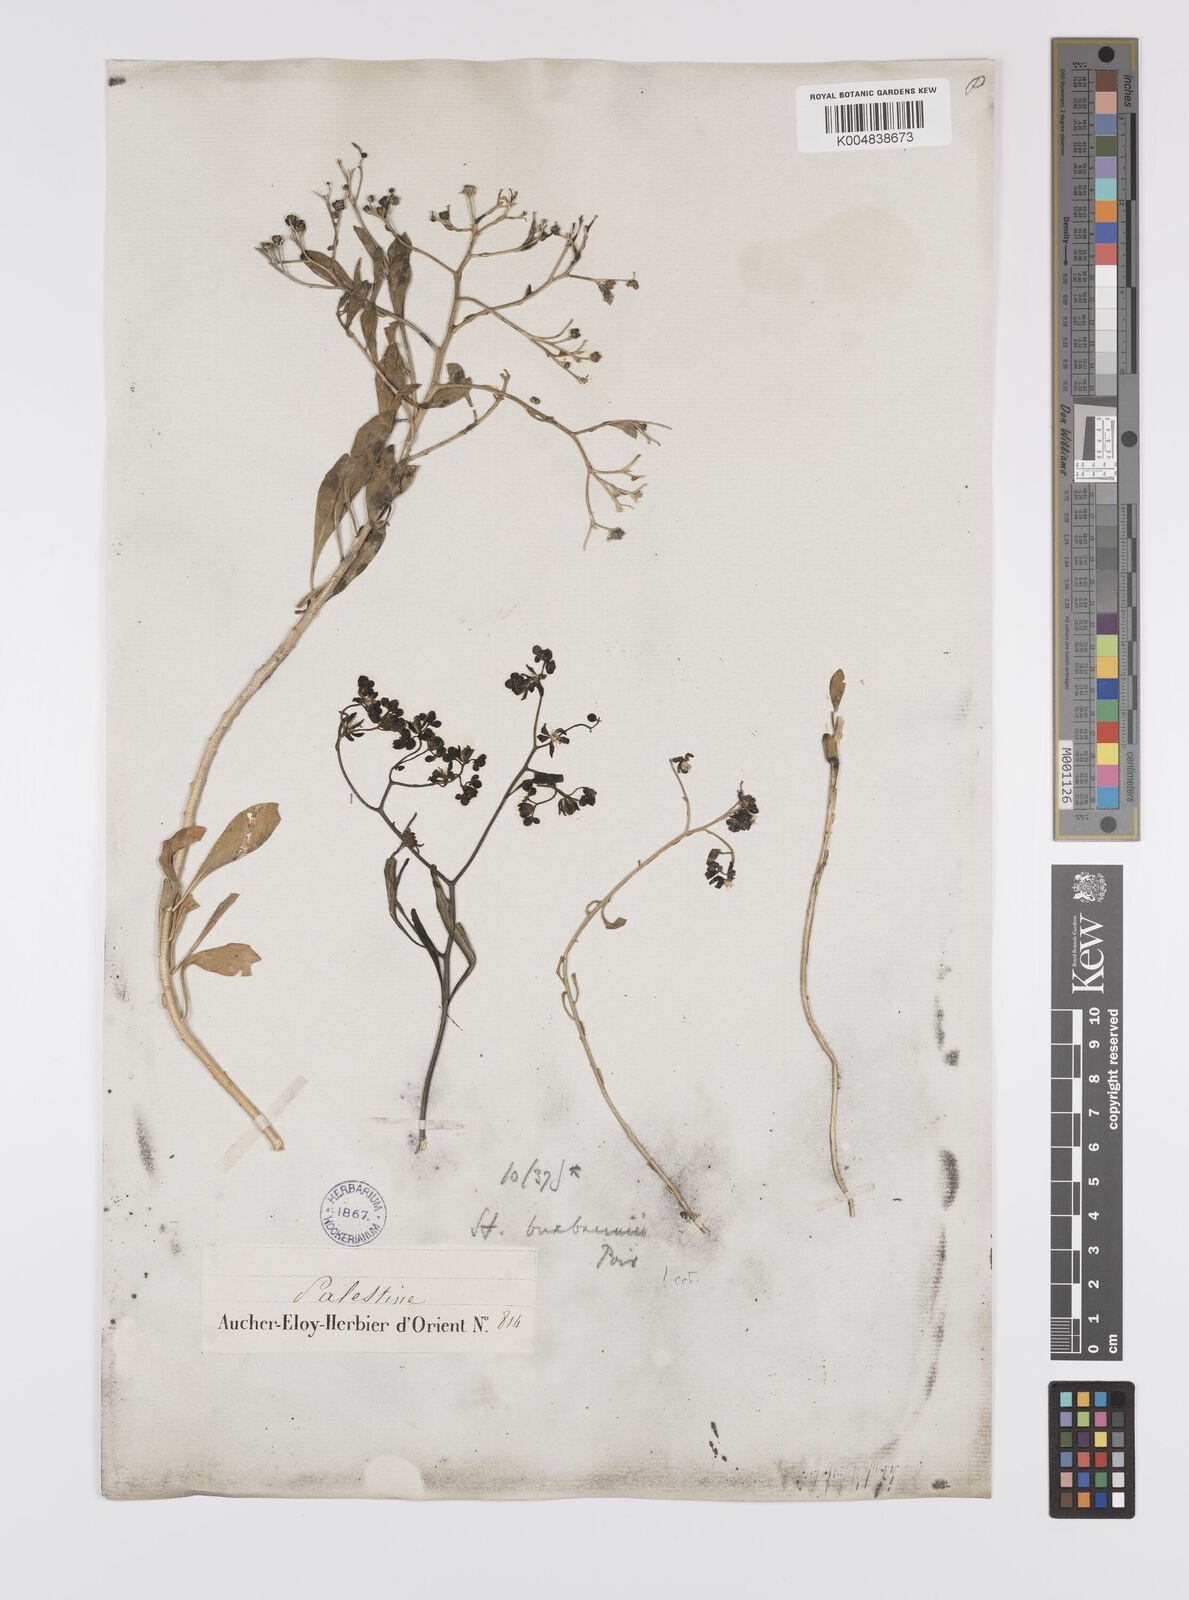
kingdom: Plantae
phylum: Tracheophyta
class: Magnoliopsida
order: Sapindales
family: Rutaceae
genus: Haplophyllum
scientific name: Haplophyllum
